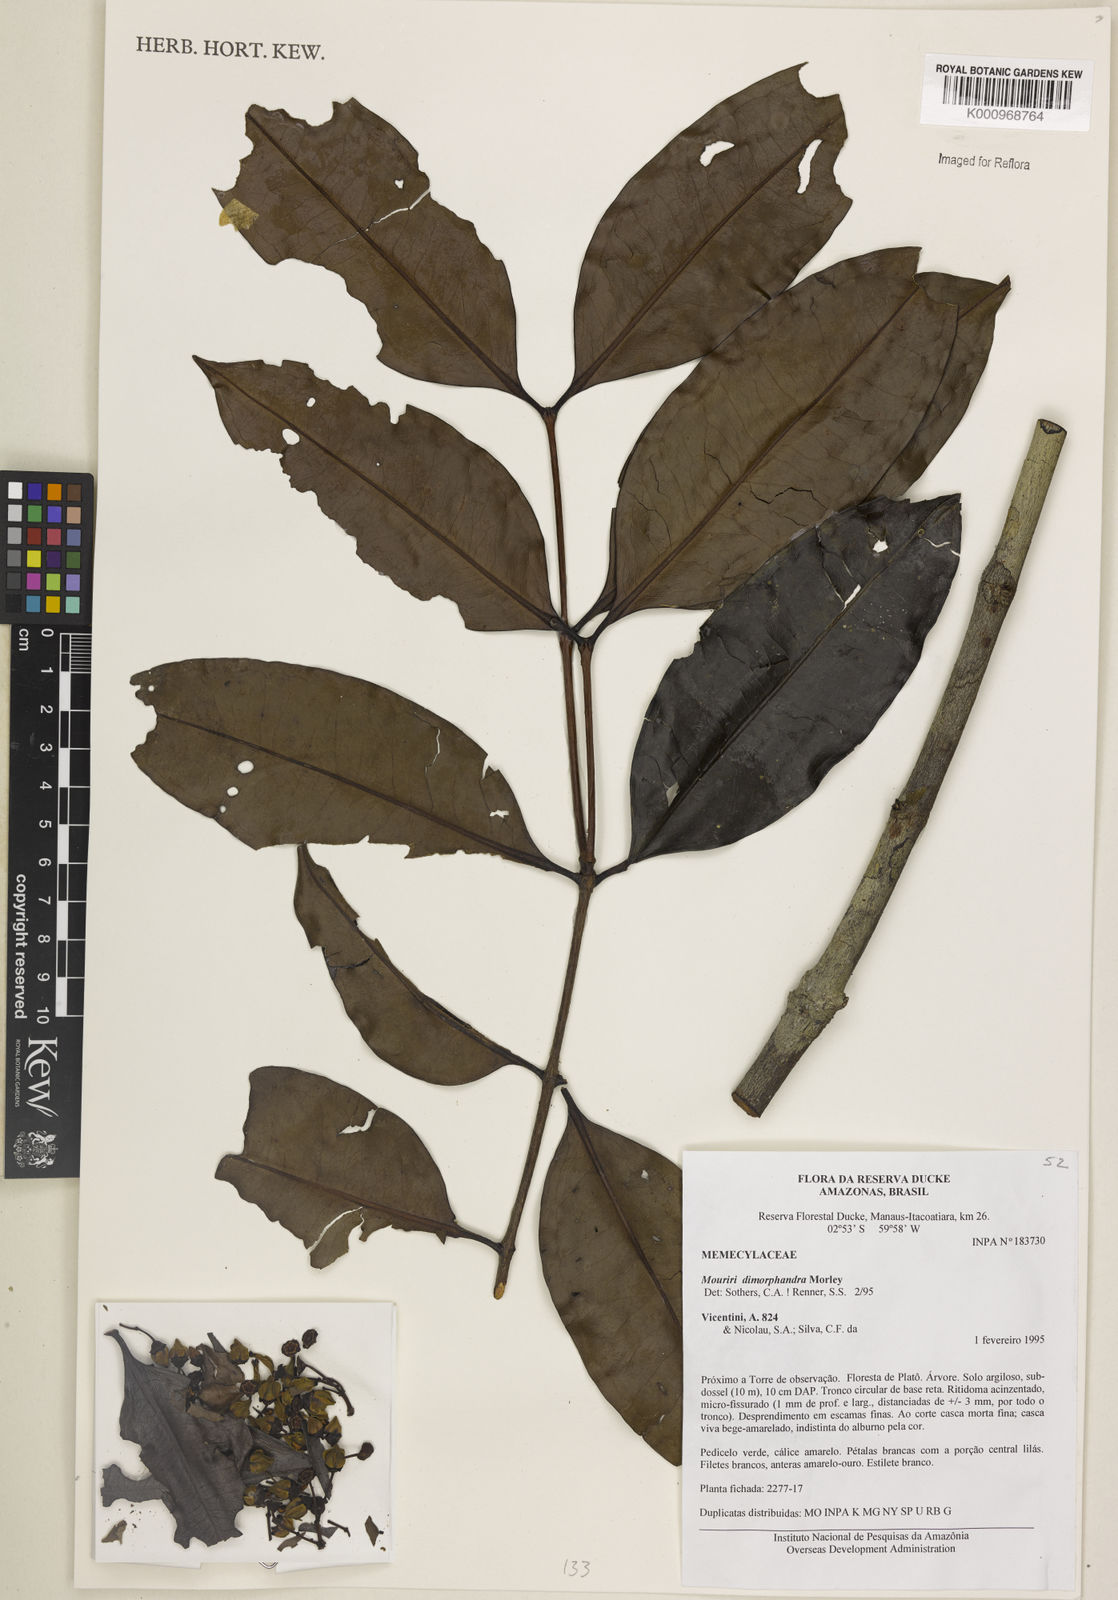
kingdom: Plantae
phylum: Tracheophyta
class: Magnoliopsida
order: Myrtales
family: Melastomataceae
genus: Mouriri
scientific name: Mouriri dimorphandra
